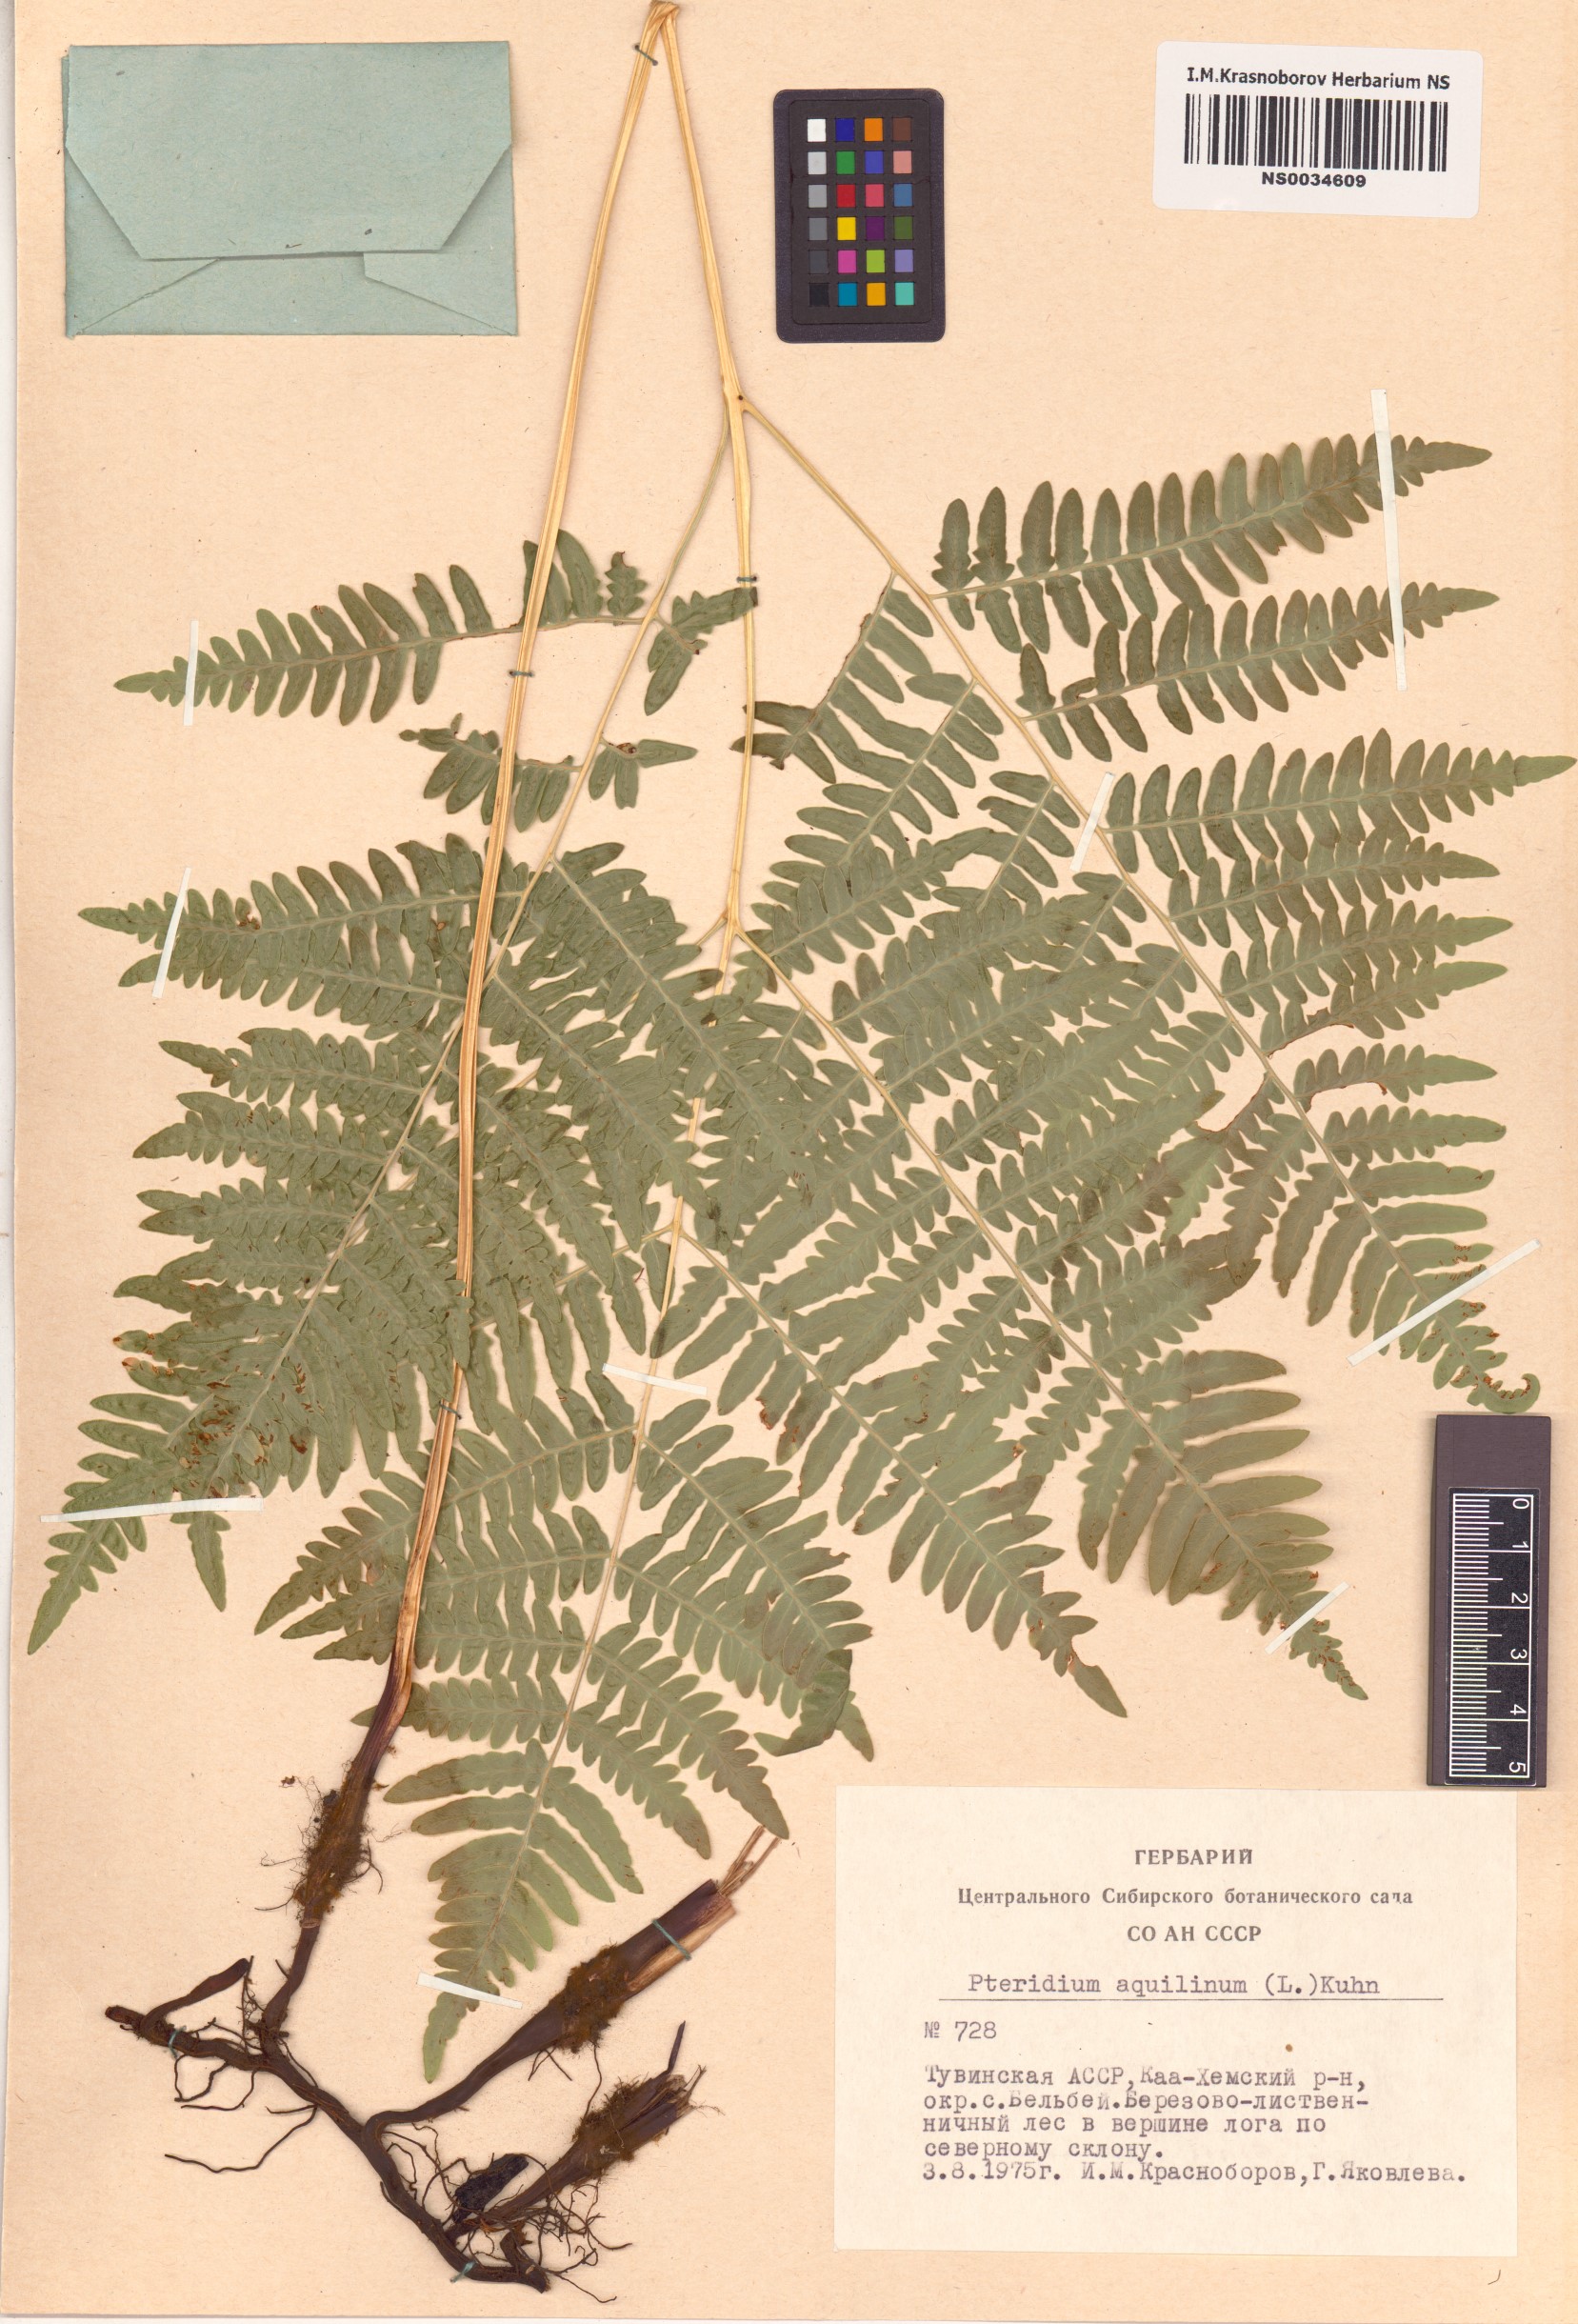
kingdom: Plantae
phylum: Tracheophyta
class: Polypodiopsida
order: Polypodiales
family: Dennstaedtiaceae
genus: Pteridium
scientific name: Pteridium aquilinum
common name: Bracken
